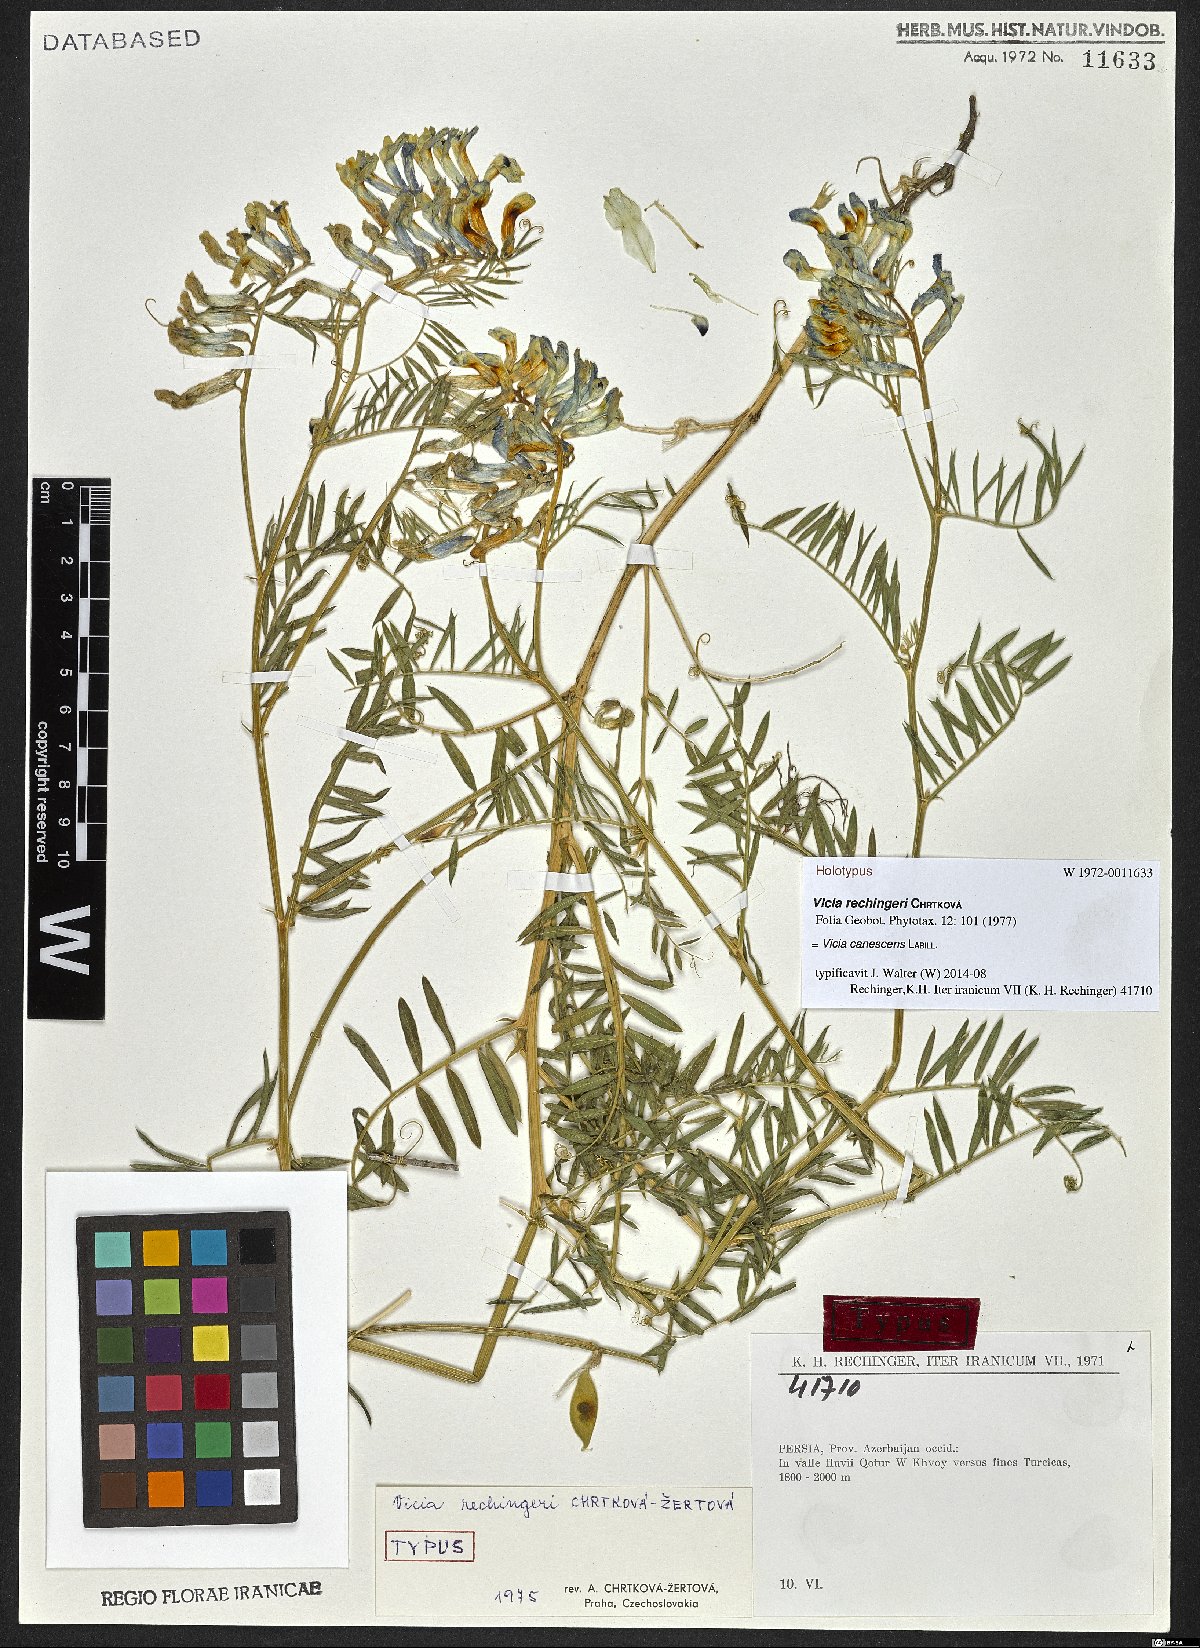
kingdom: Plantae
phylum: Tracheophyta
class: Magnoliopsida
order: Fabales
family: Fabaceae
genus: Vicia
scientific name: Vicia canescens
